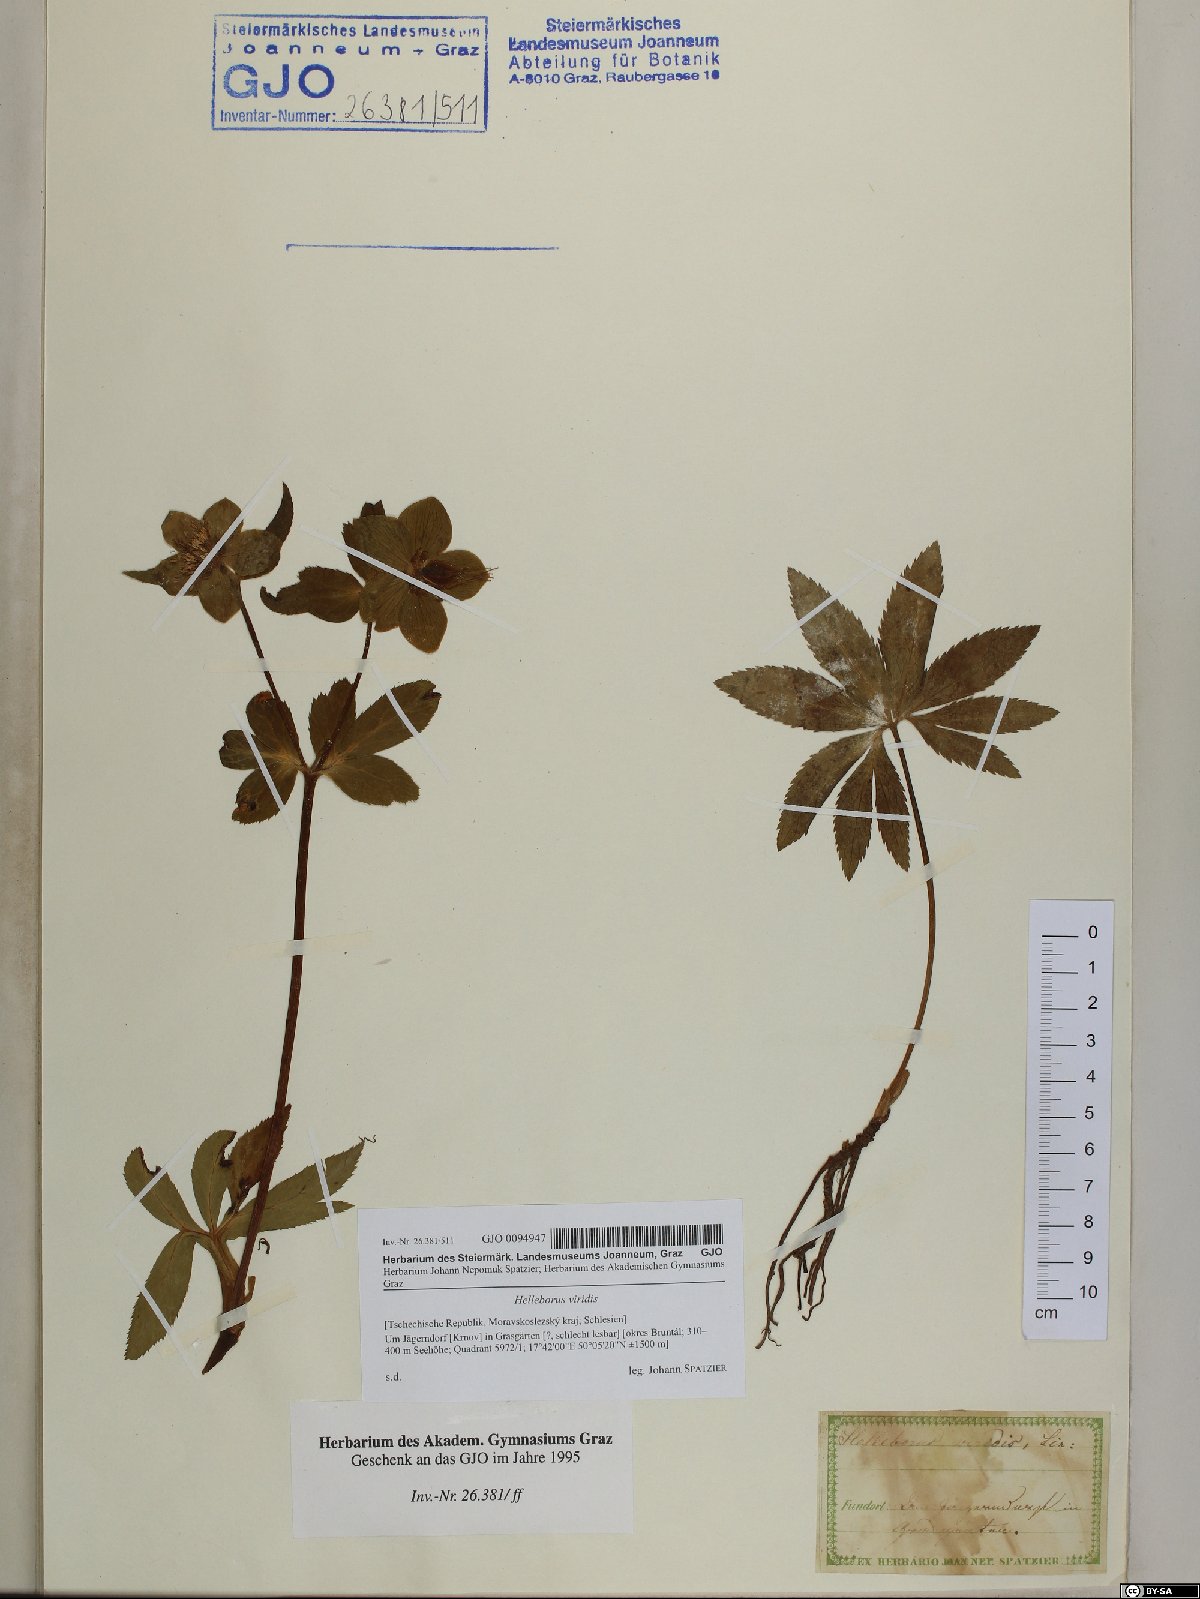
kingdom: Plantae
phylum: Tracheophyta
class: Magnoliopsida
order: Ranunculales
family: Ranunculaceae
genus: Helleborus
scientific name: Helleborus viridis
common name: Green hellebore
